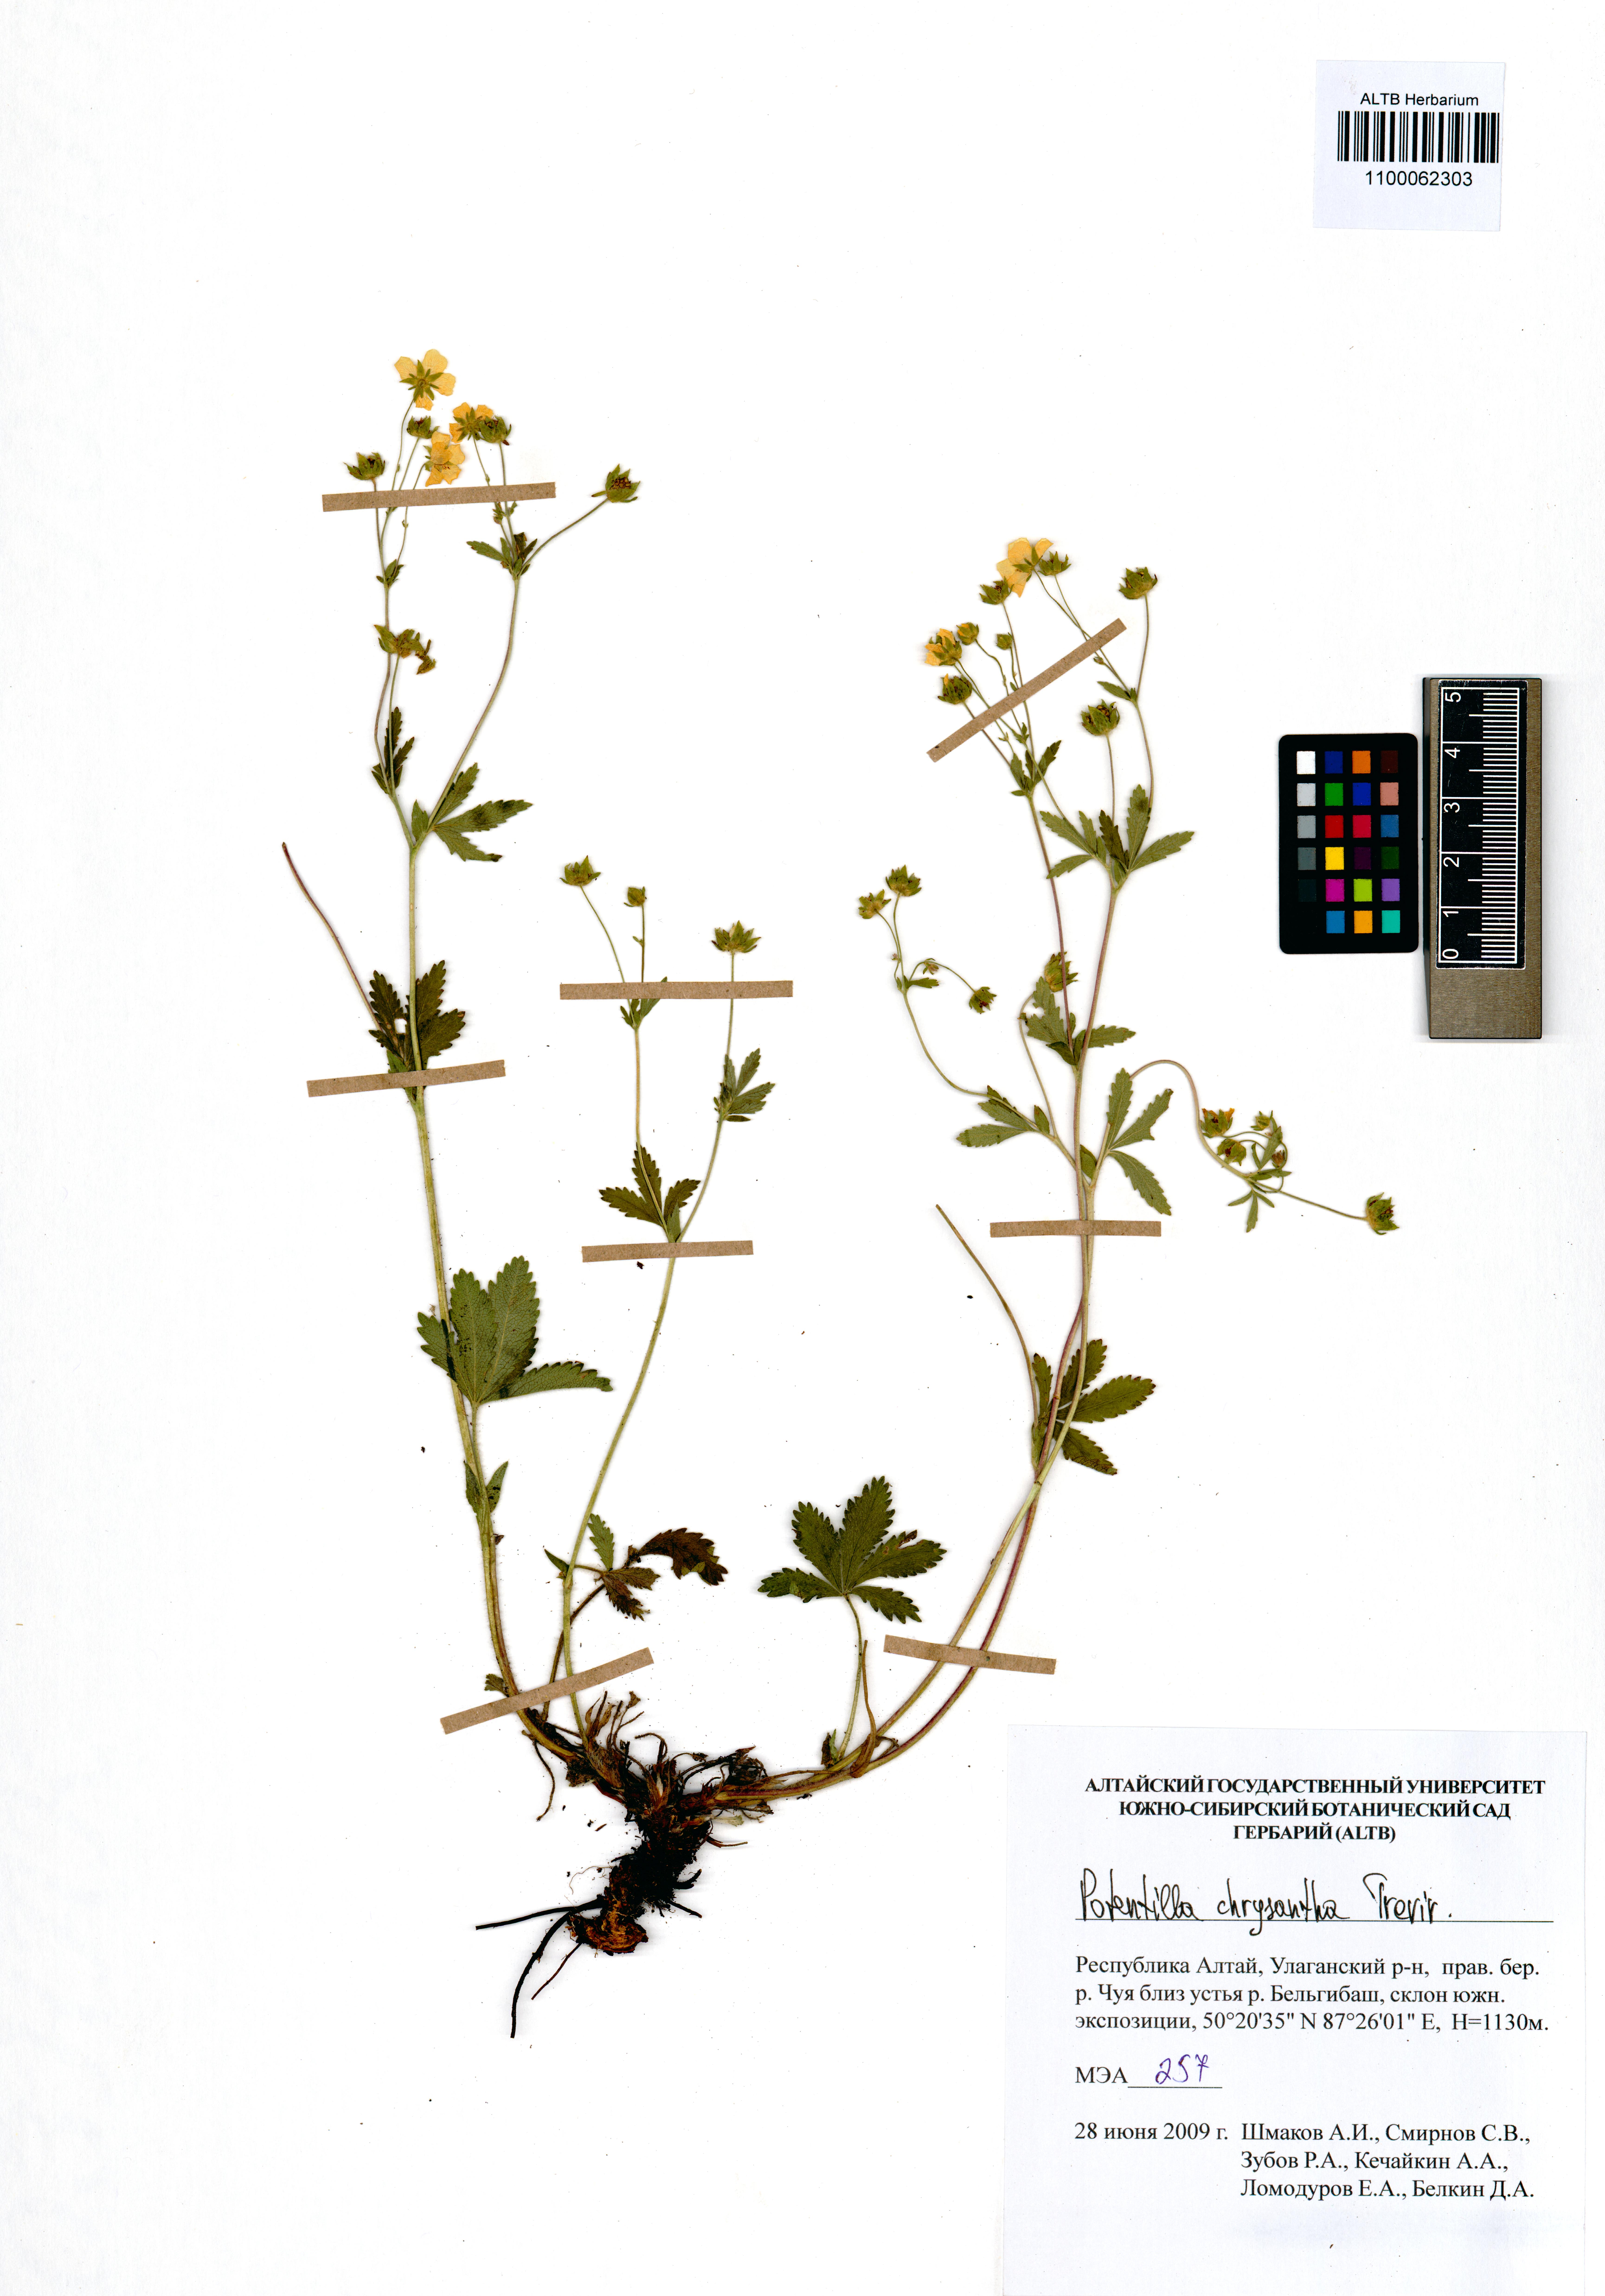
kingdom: Plantae
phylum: Tracheophyta
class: Magnoliopsida
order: Rosales
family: Rosaceae
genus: Potentilla
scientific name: Potentilla chrysantha
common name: Thuringian cinquefoil
